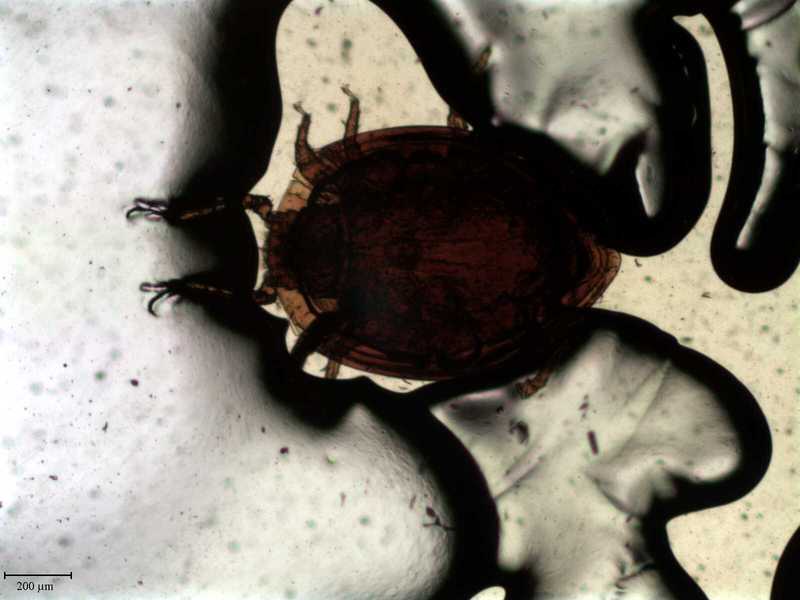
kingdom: Animalia
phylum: Arthropoda
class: Arachnida
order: Mesostigmata
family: Uropodidae
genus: Uroobovella
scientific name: Uroobovella furcigera
